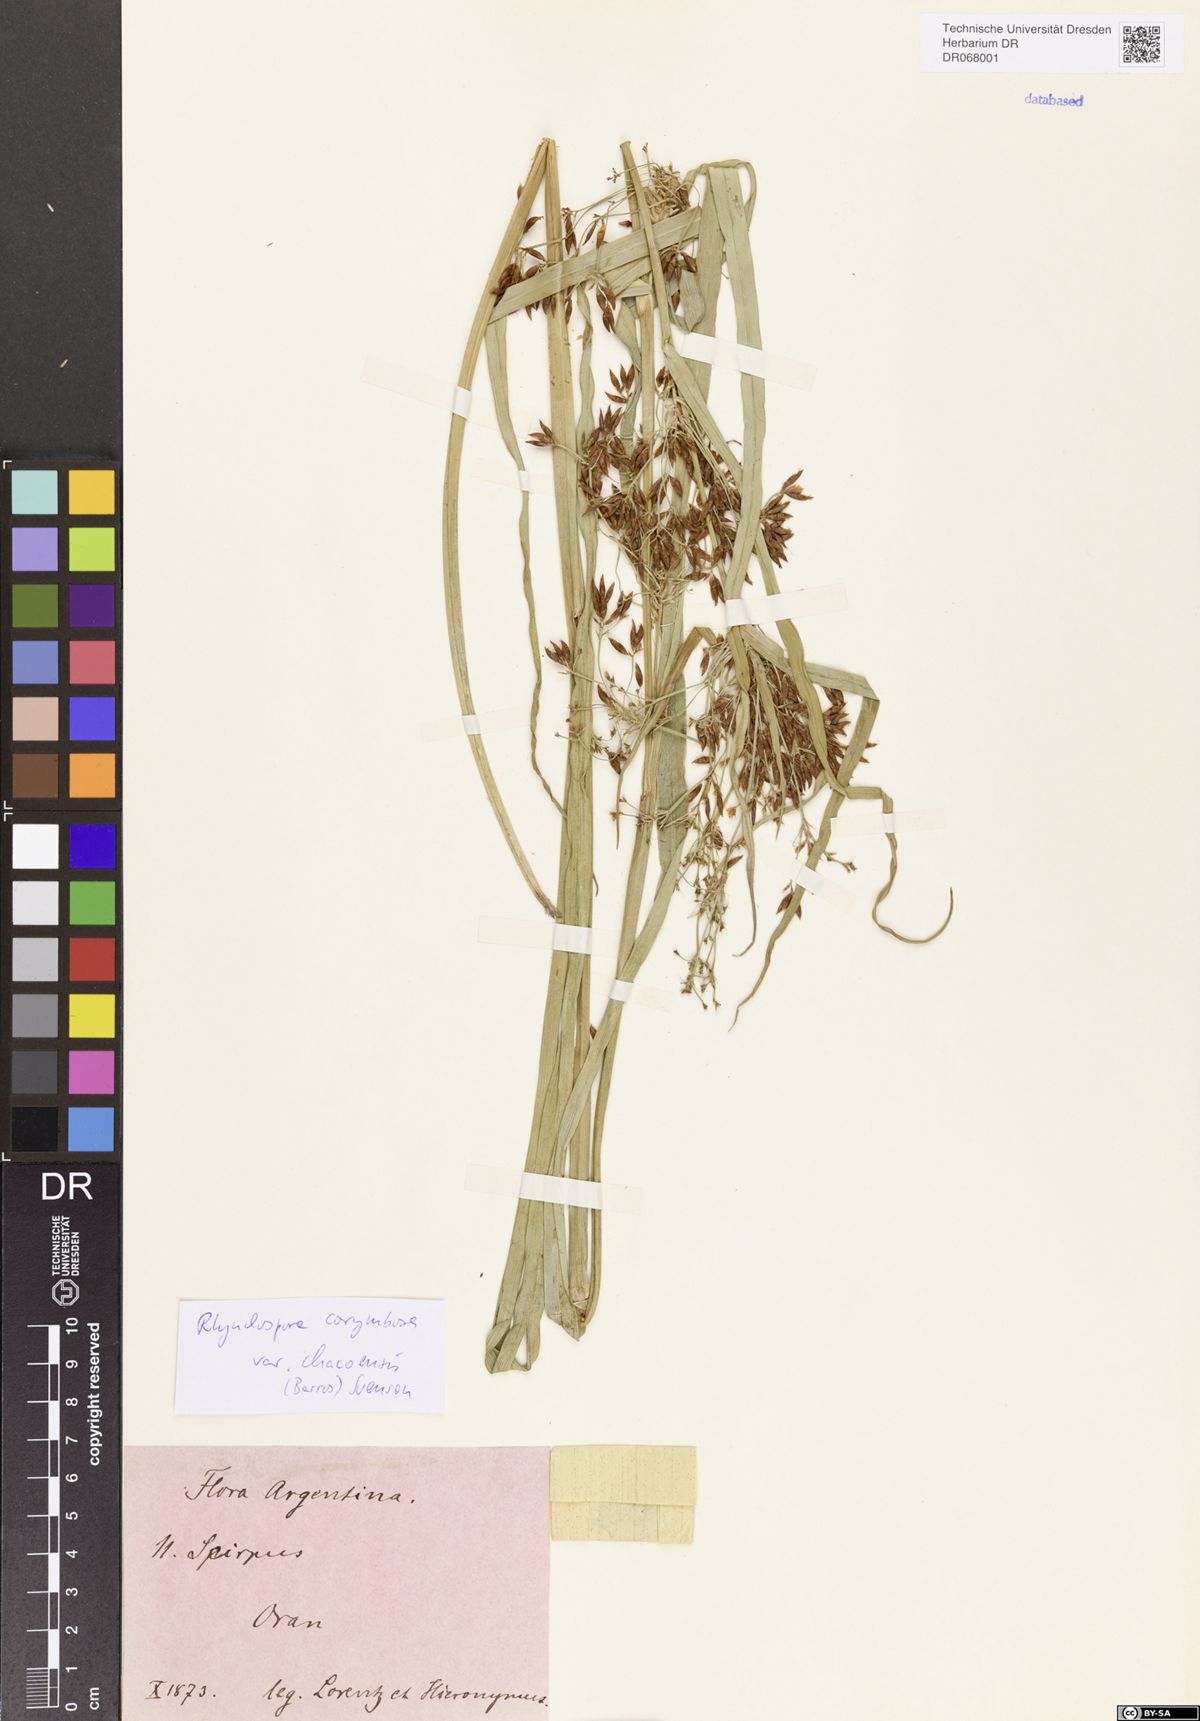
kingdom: Plantae
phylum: Tracheophyta
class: Liliopsida
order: Poales
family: Cyperaceae
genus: Rhynchospora
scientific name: Rhynchospora corymbosa
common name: Golden beak sedge
